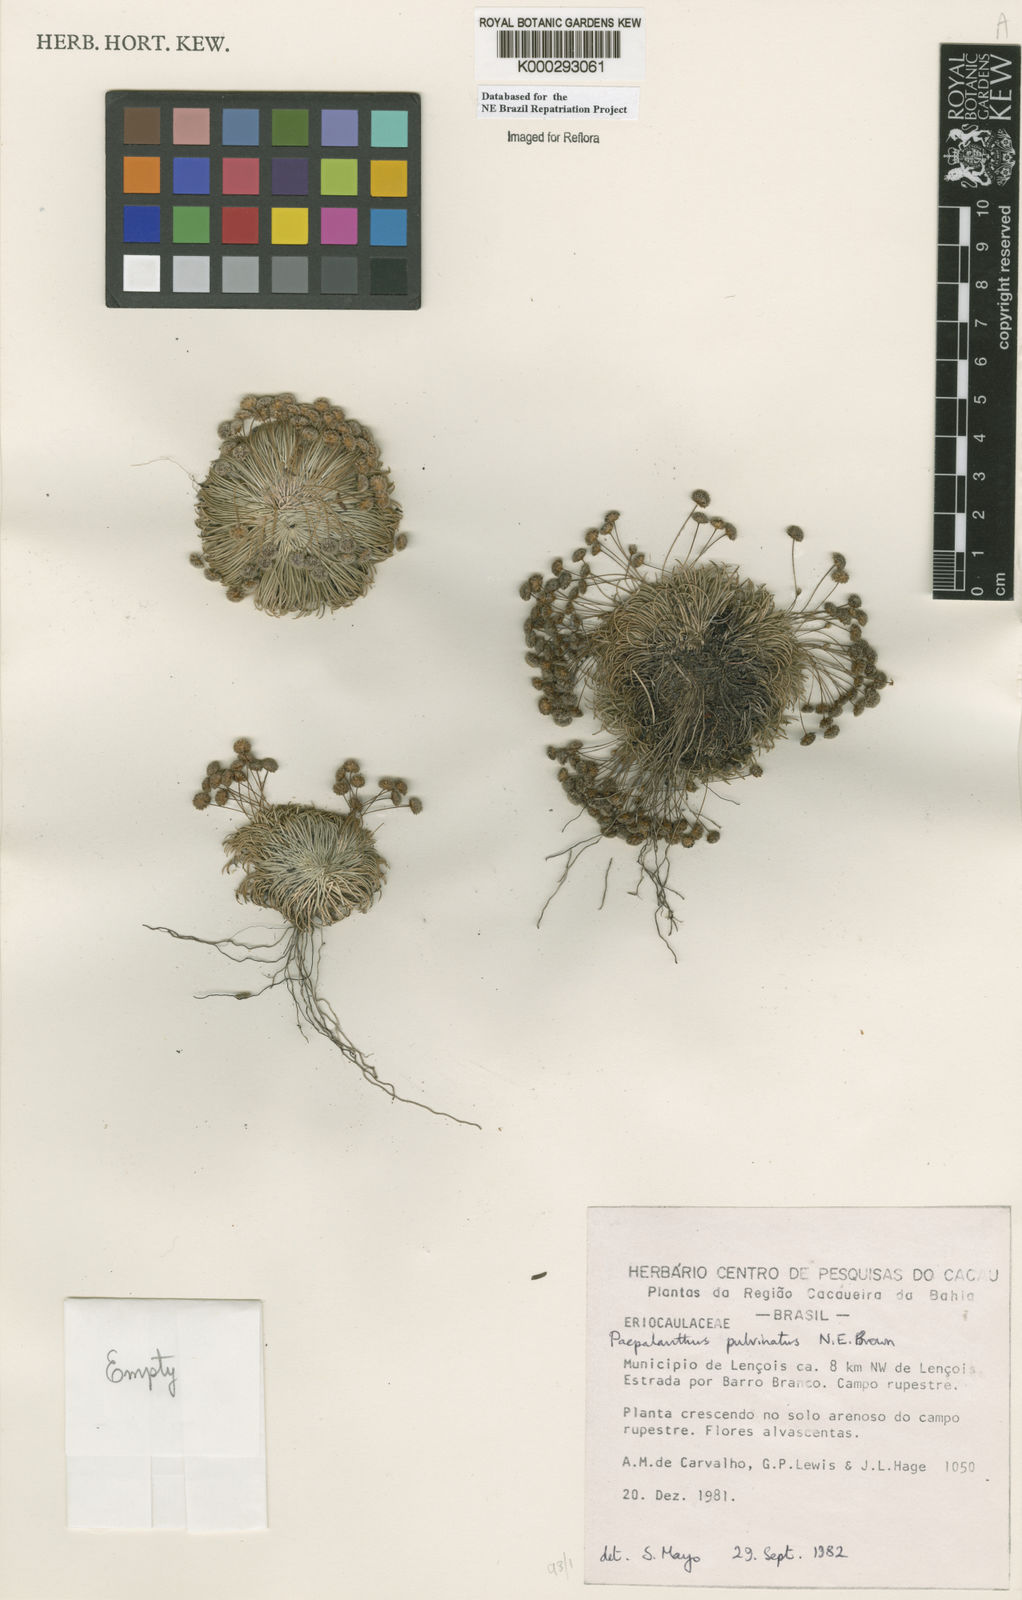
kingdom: Plantae
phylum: Tracheophyta
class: Liliopsida
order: Poales
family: Eriocaulaceae
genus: Paepalanthus
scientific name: Paepalanthus pulvinatus
